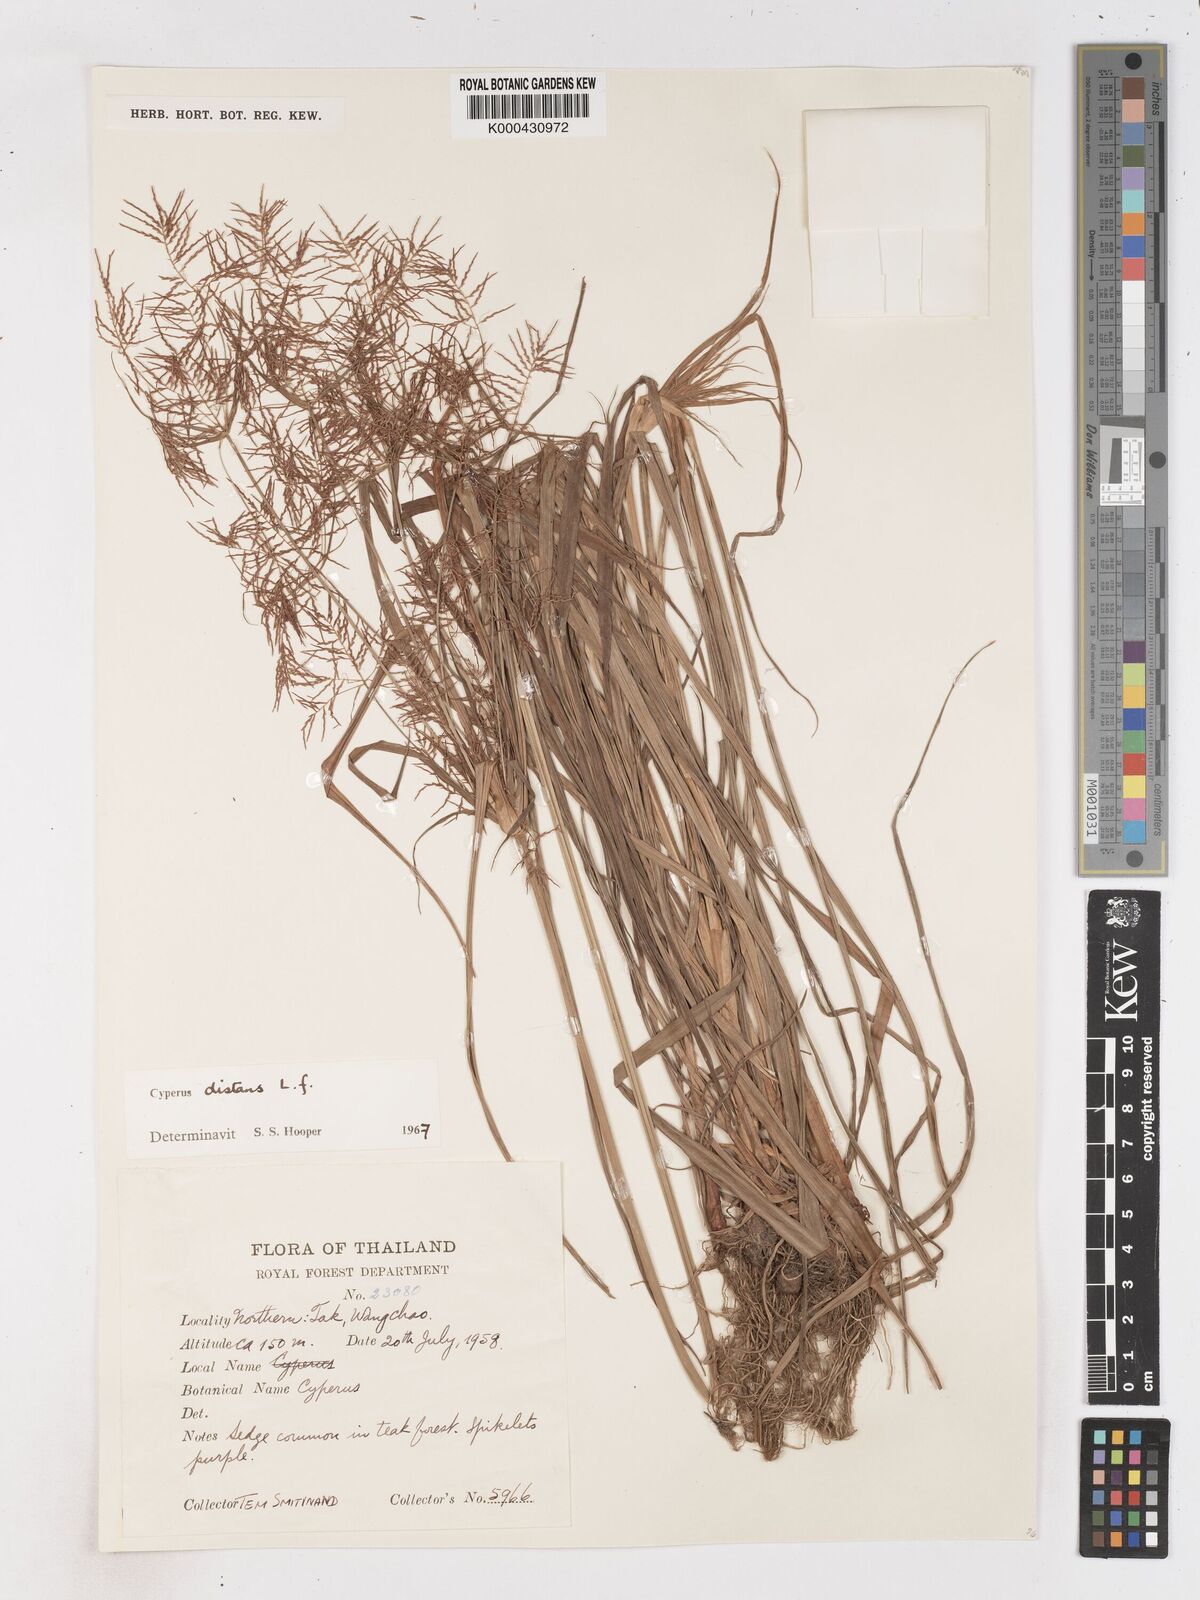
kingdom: Plantae
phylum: Tracheophyta
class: Liliopsida
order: Poales
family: Cyperaceae
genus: Cyperus
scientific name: Cyperus distans
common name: Slender cyperus
